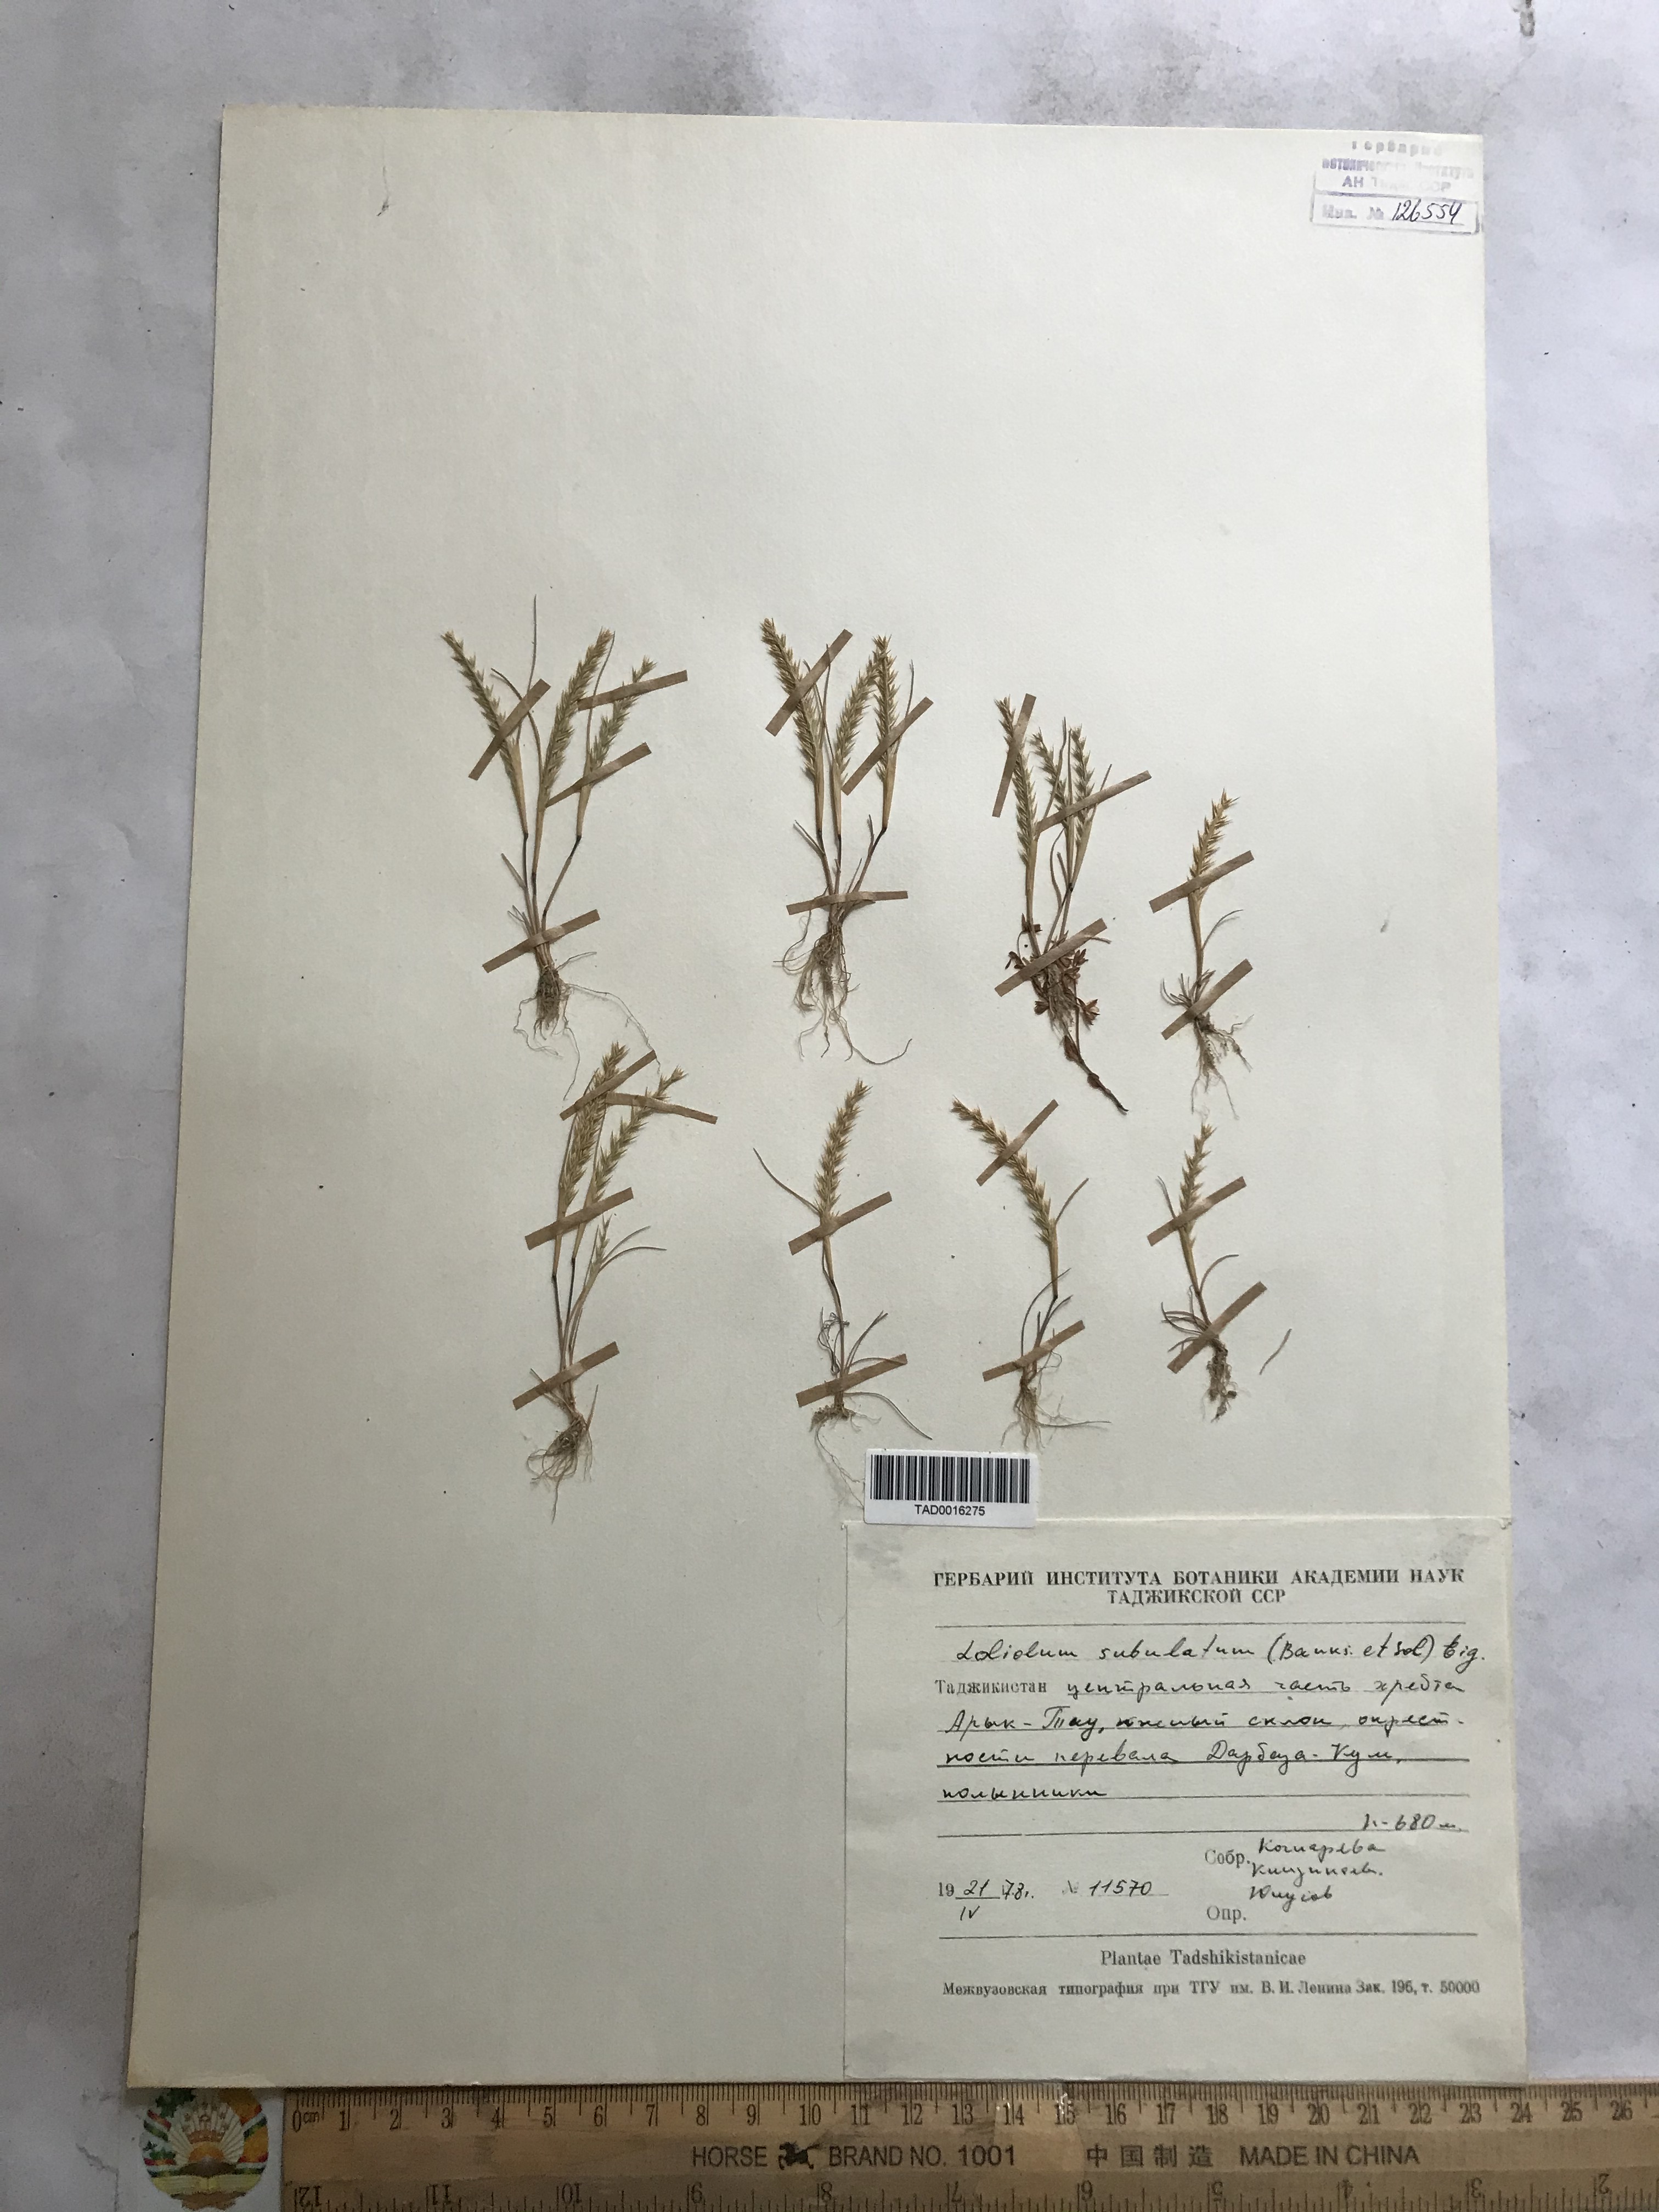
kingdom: Plantae
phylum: Tracheophyta
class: Liliopsida
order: Poales
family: Poaceae
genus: Festuca
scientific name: Festuca orientalis
